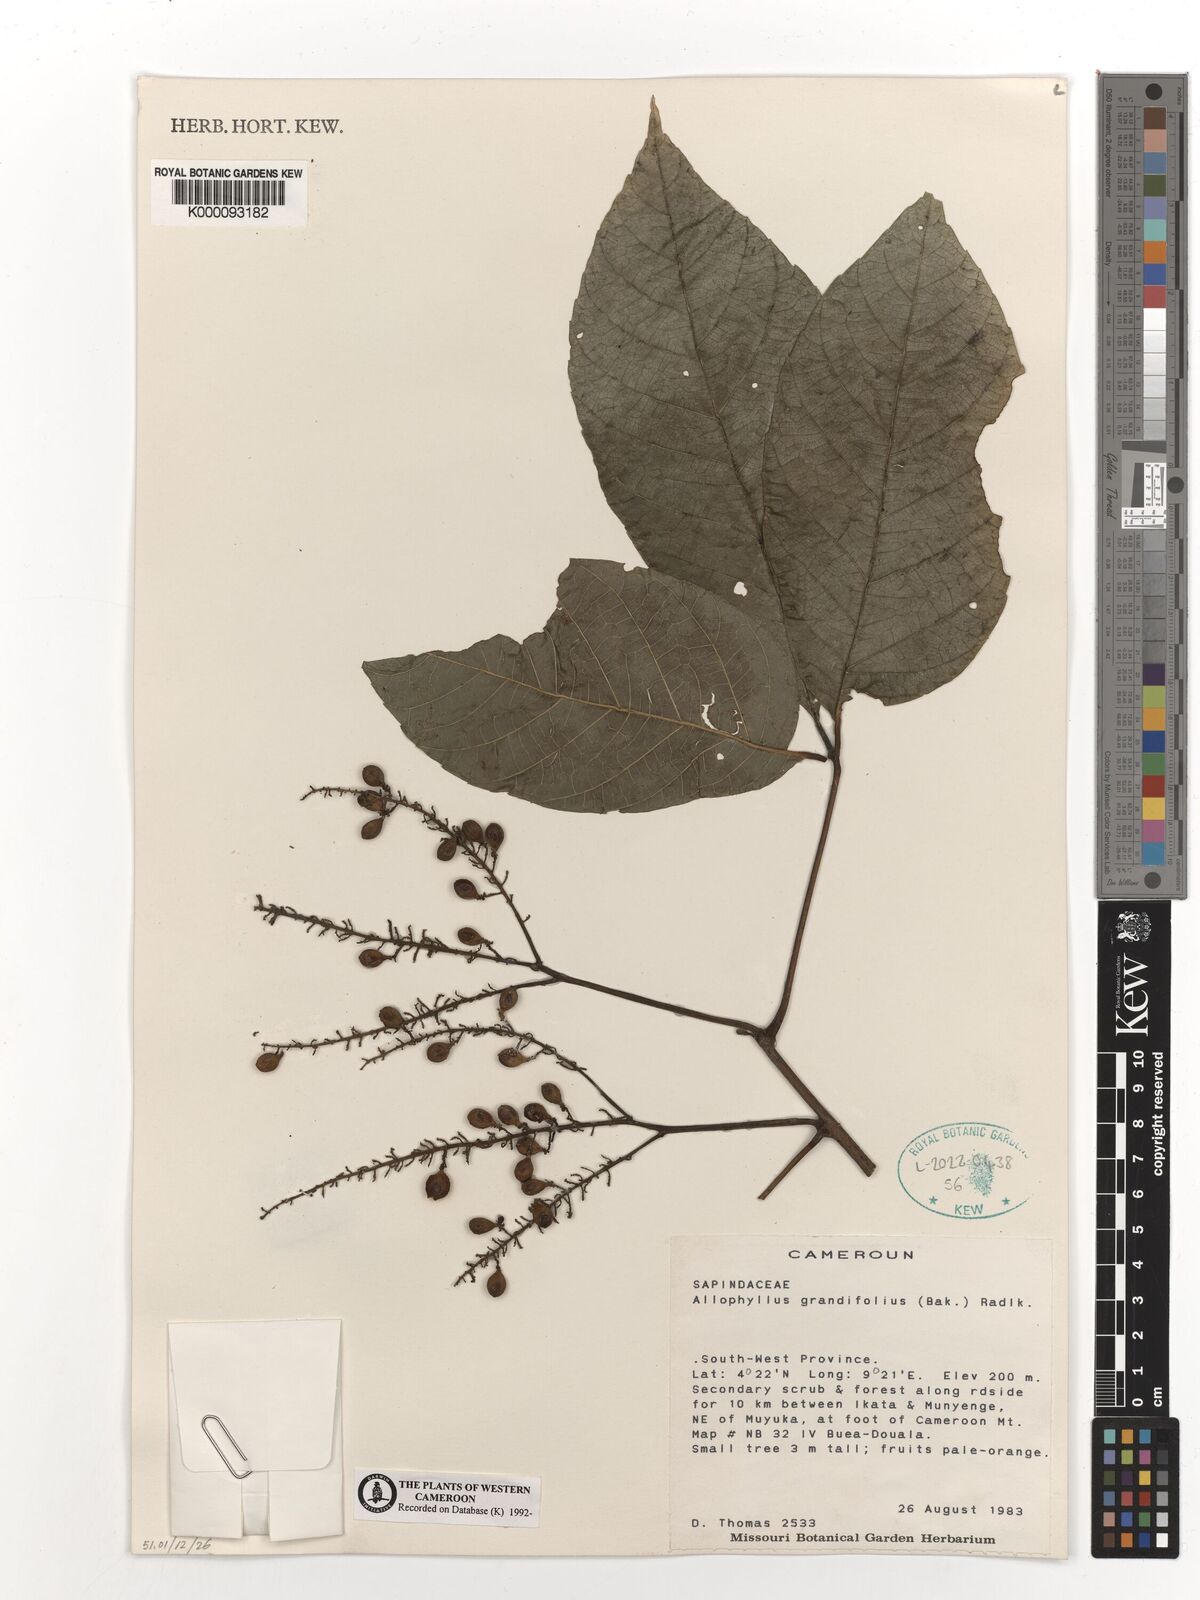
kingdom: Plantae
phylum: Tracheophyta
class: Magnoliopsida
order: Sapindales
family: Sapindaceae
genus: Allophylus
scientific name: Allophylus grandifolius
